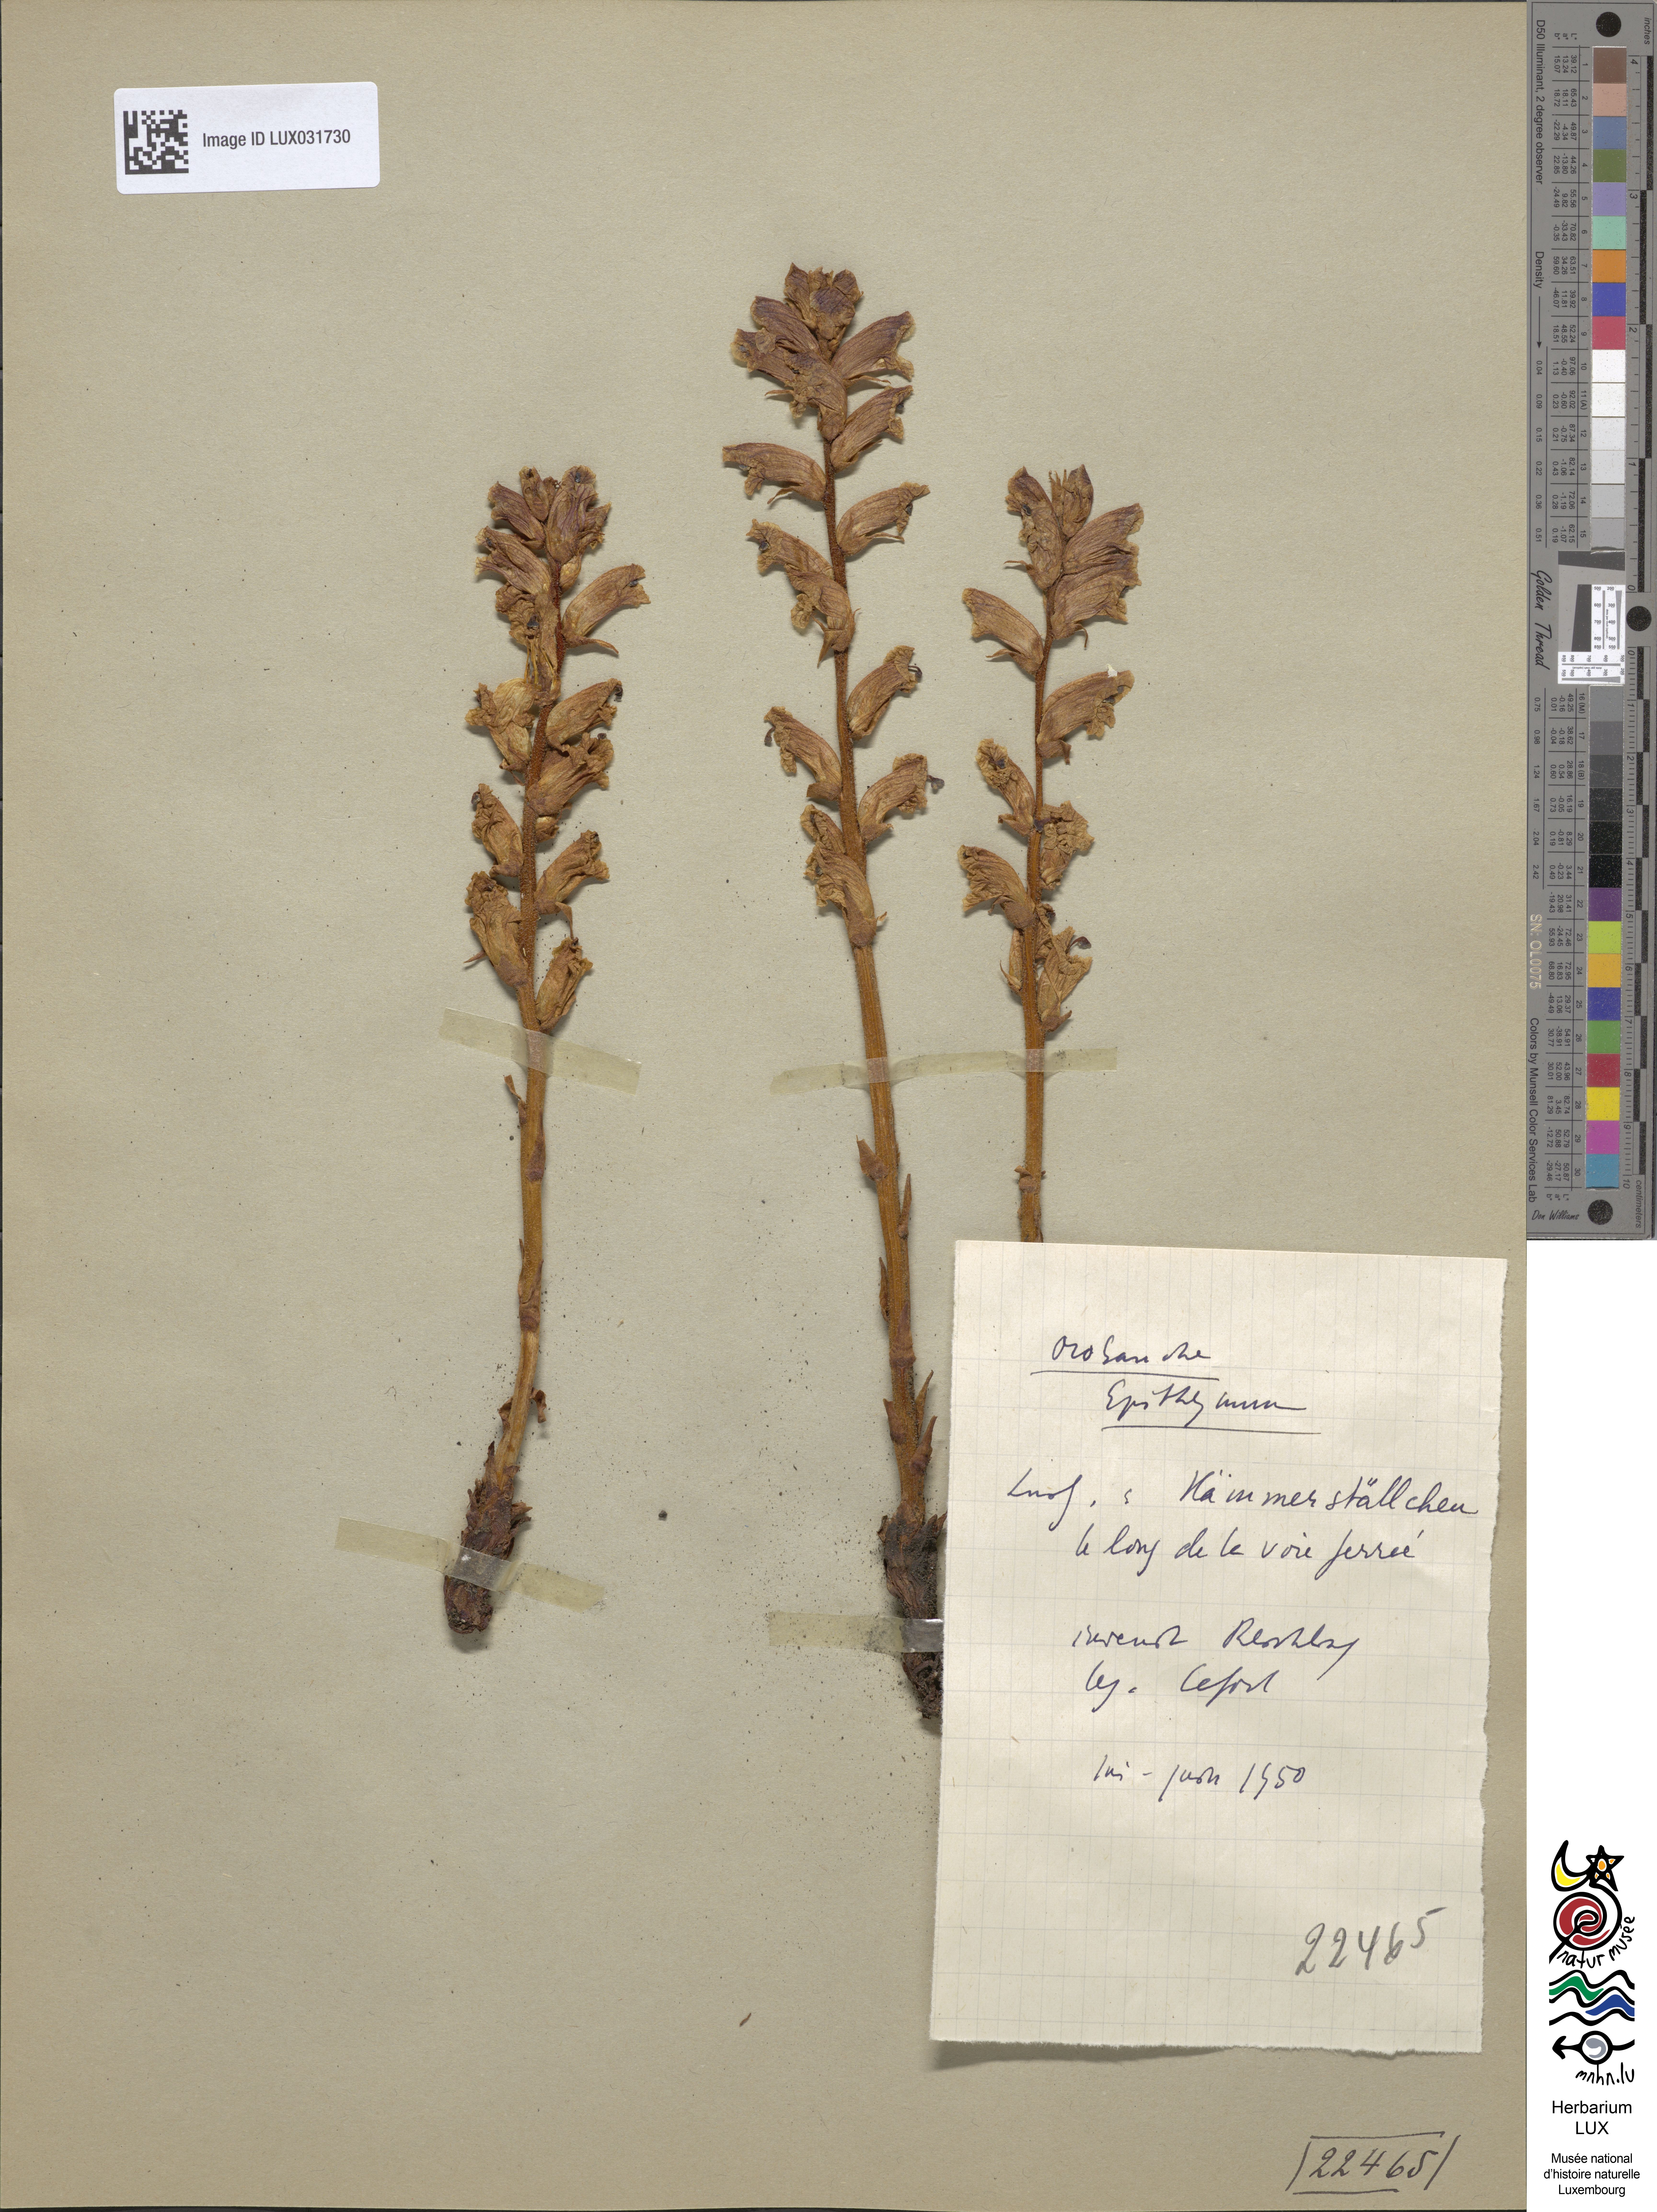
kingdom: Plantae
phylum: Tracheophyta
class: Magnoliopsida
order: Lamiales
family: Orobanchaceae
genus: Orobanche
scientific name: Orobanche alba
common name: Thyme broomrape
